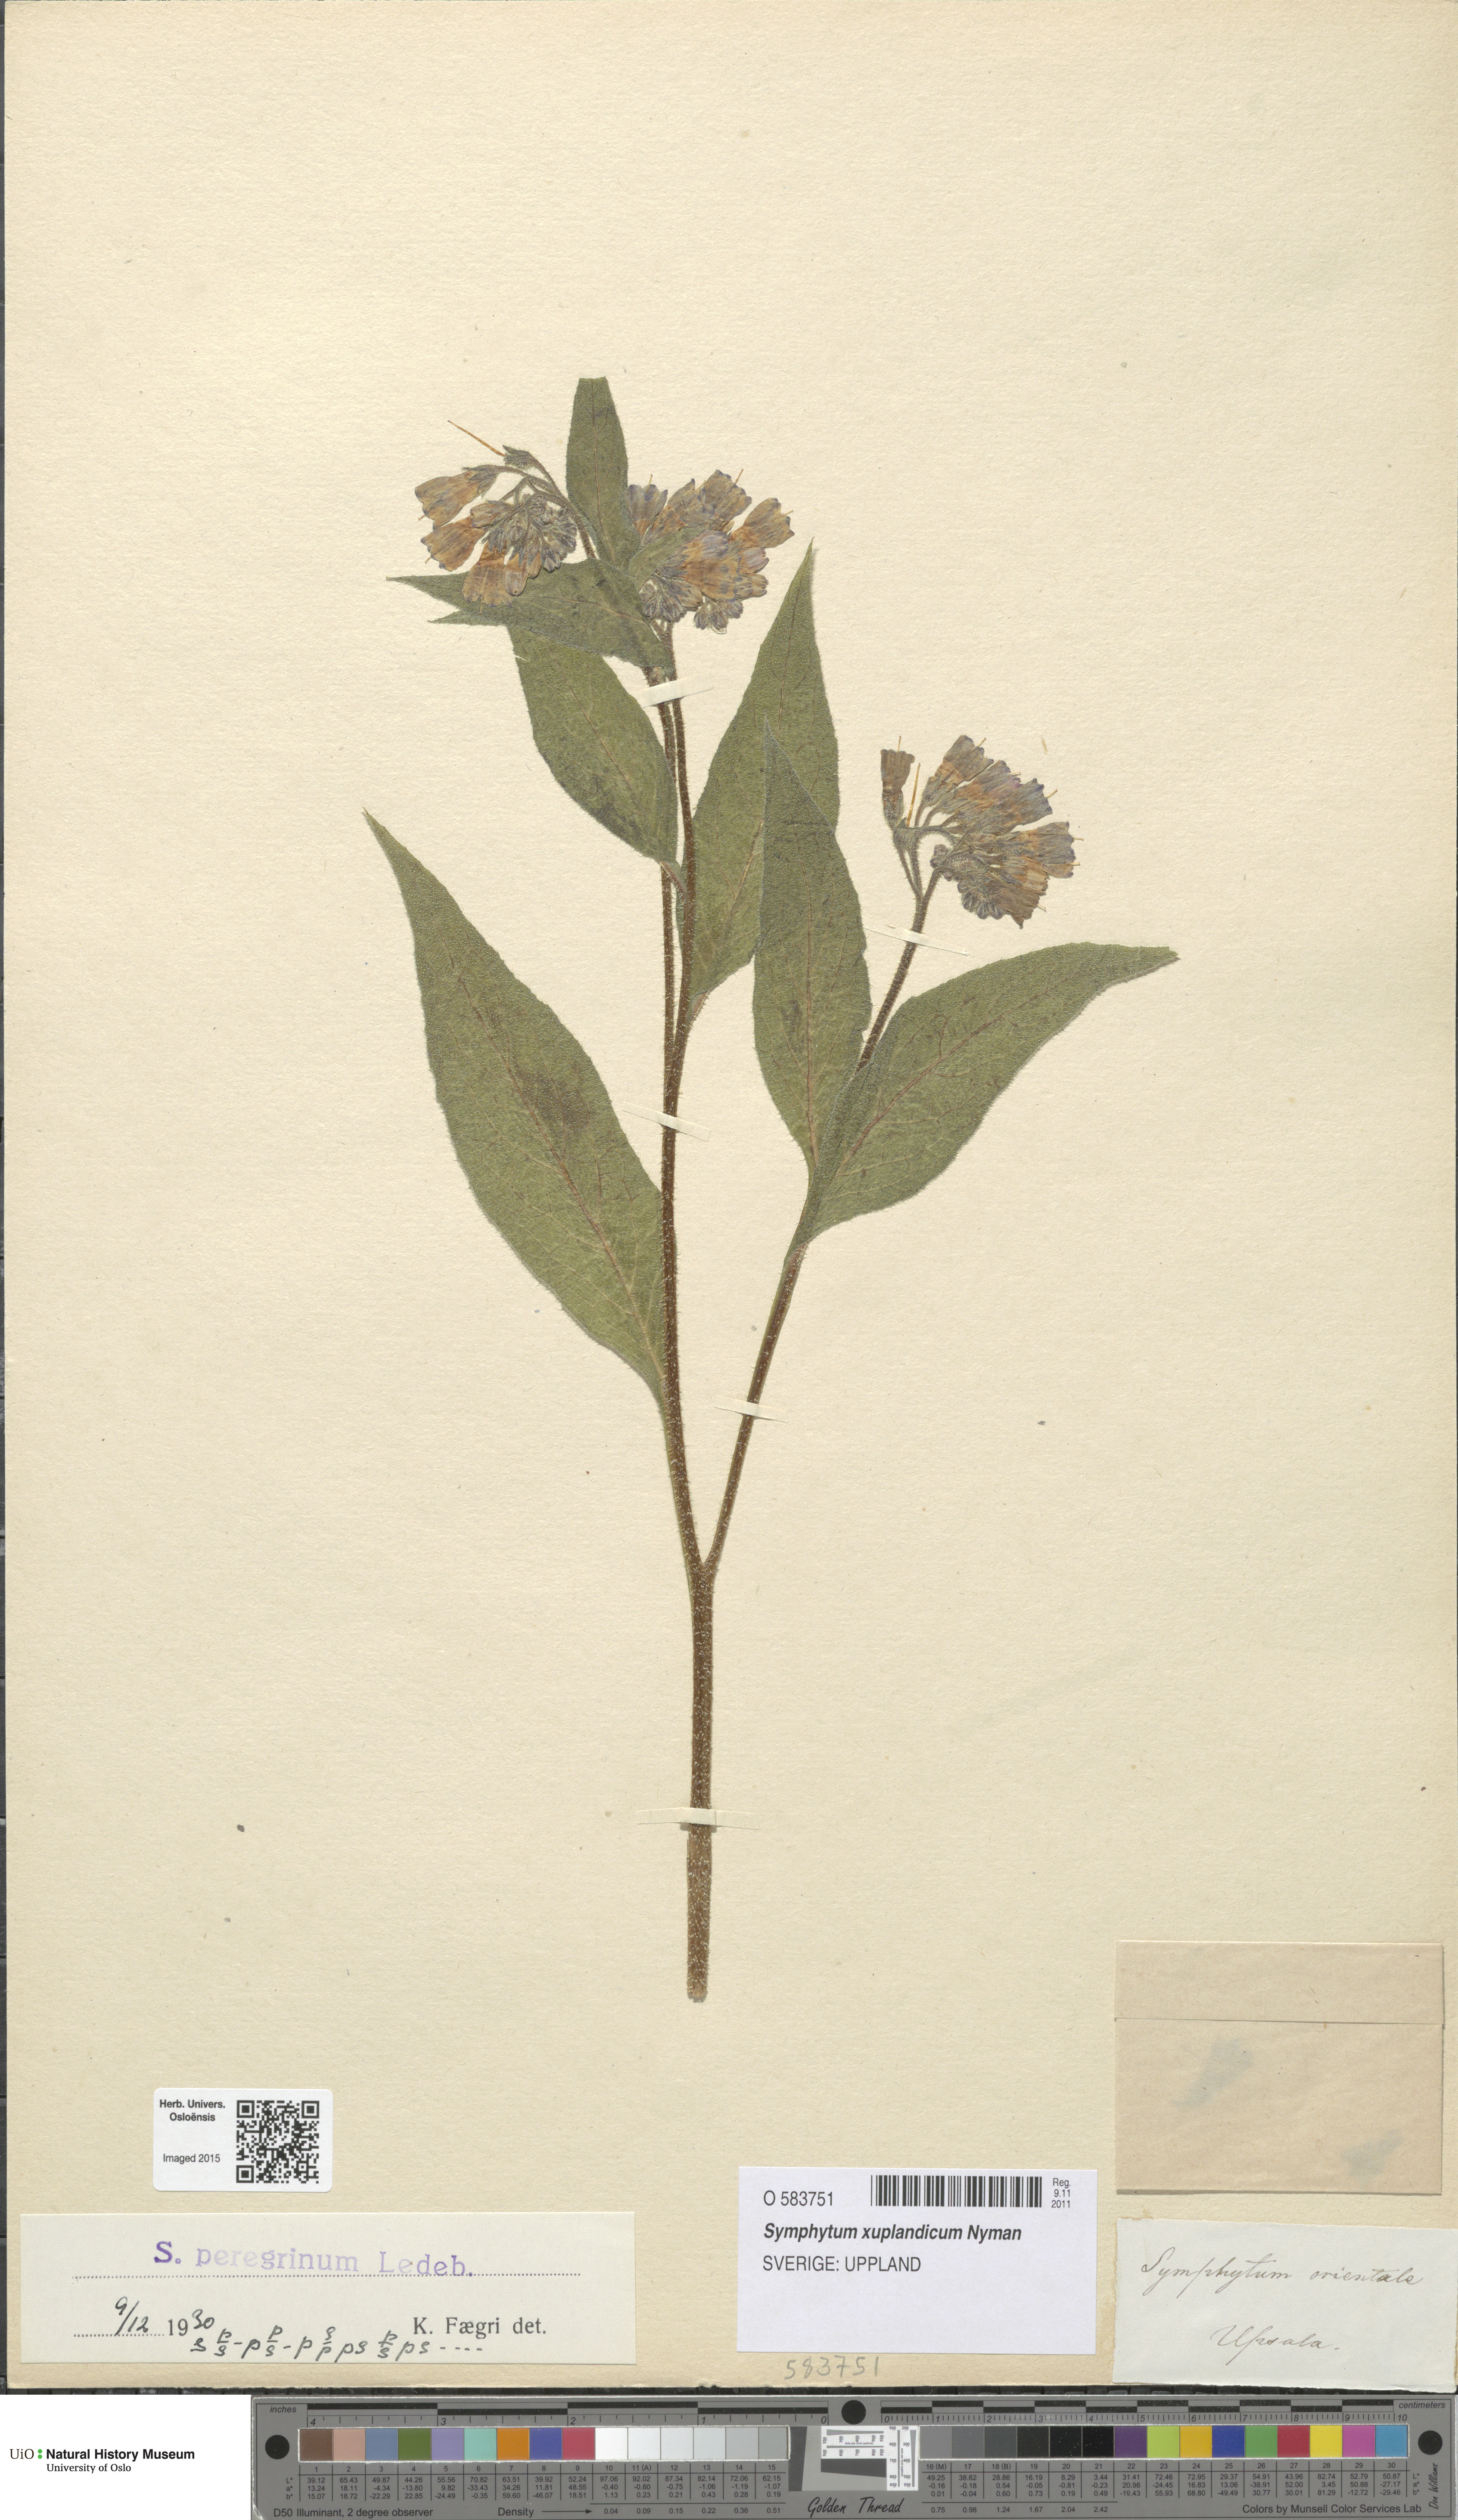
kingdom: Plantae
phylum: Tracheophyta
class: Magnoliopsida
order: Boraginales
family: Boraginaceae
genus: Symphytum
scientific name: Symphytum uplandicum
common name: Russian comfrey
